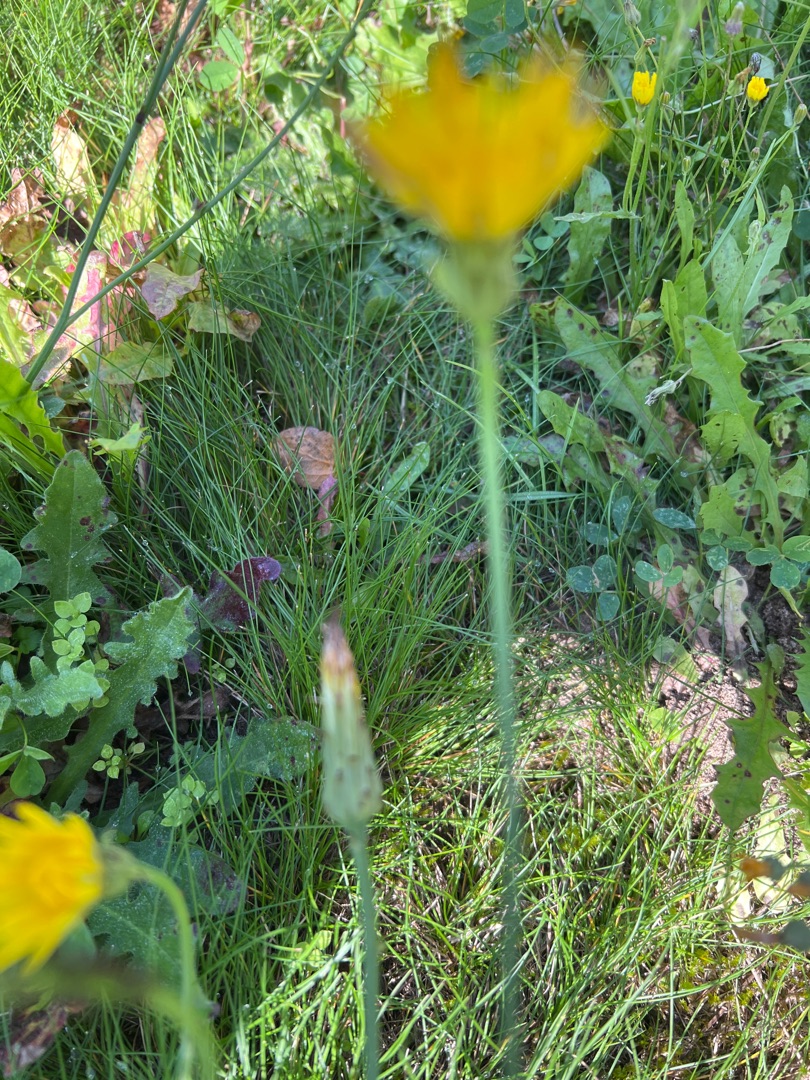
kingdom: Plantae
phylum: Tracheophyta
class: Magnoliopsida
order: Asterales
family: Asteraceae
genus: Hypochaeris
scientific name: Hypochaeris radicata
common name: Almindelig kongepen
